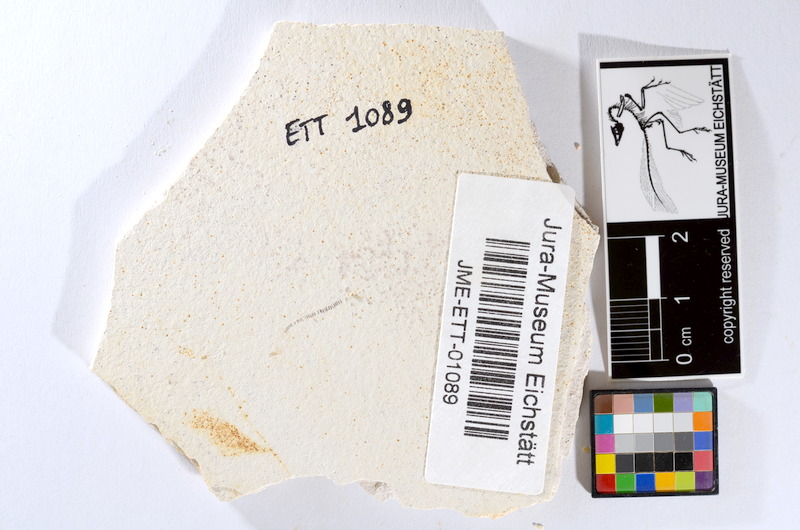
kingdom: Animalia
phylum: Chordata
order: Salmoniformes
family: Orthogonikleithridae
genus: Orthogonikleithrus
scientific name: Orthogonikleithrus hoelli
